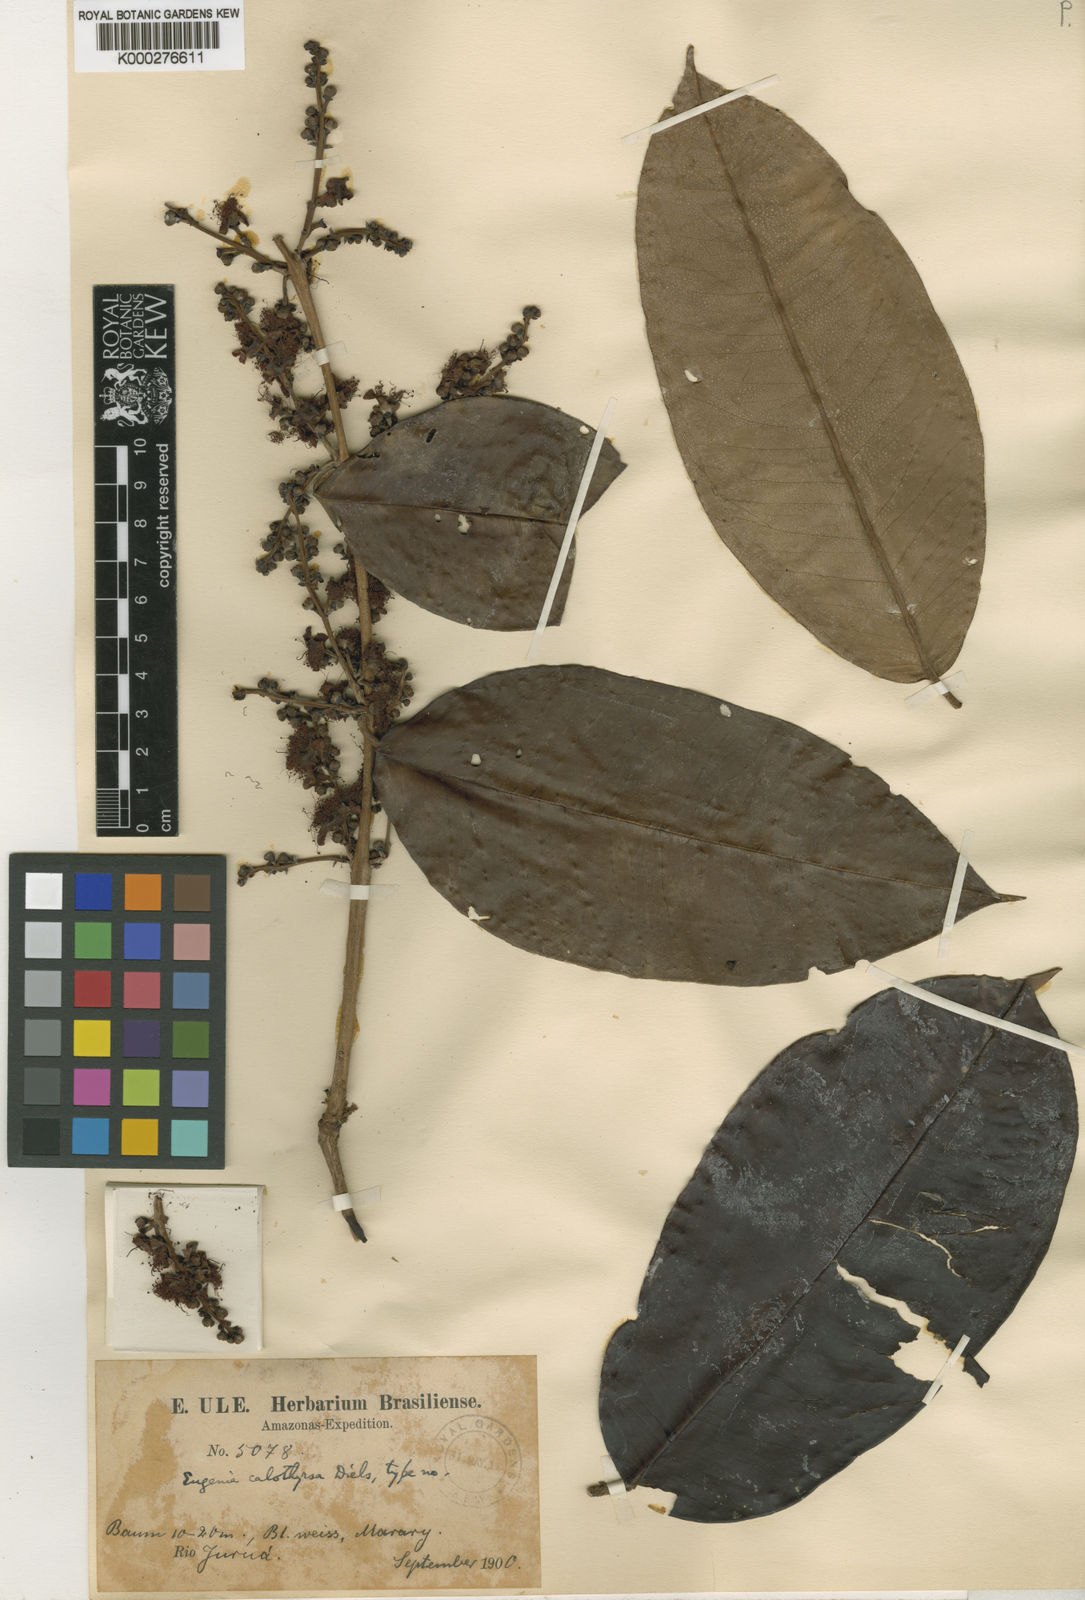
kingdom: Plantae
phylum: Tracheophyta
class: Magnoliopsida
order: Myrtales
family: Myrtaceae
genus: Eugenia
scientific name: Eugenia muricata
